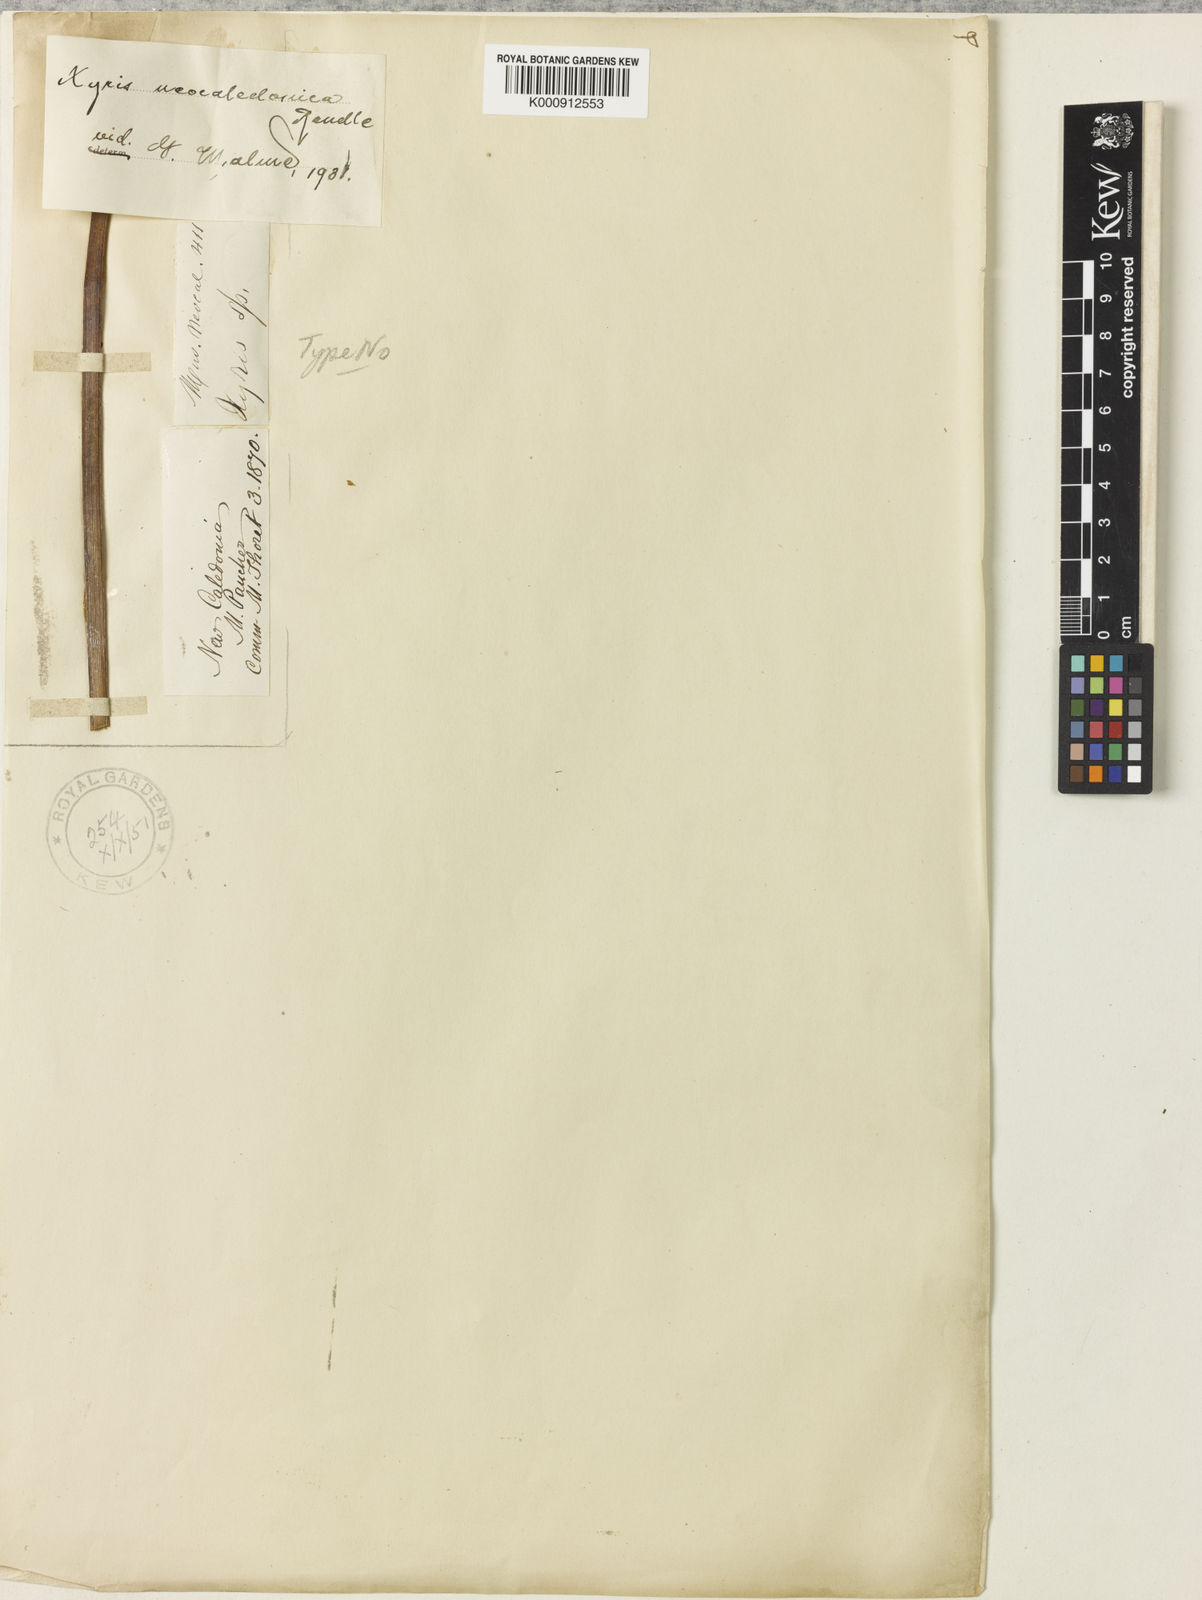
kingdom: Plantae
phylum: Tracheophyta
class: Liliopsida
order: Poales
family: Xyridaceae
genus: Xyris
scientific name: Xyris neocaledonica
